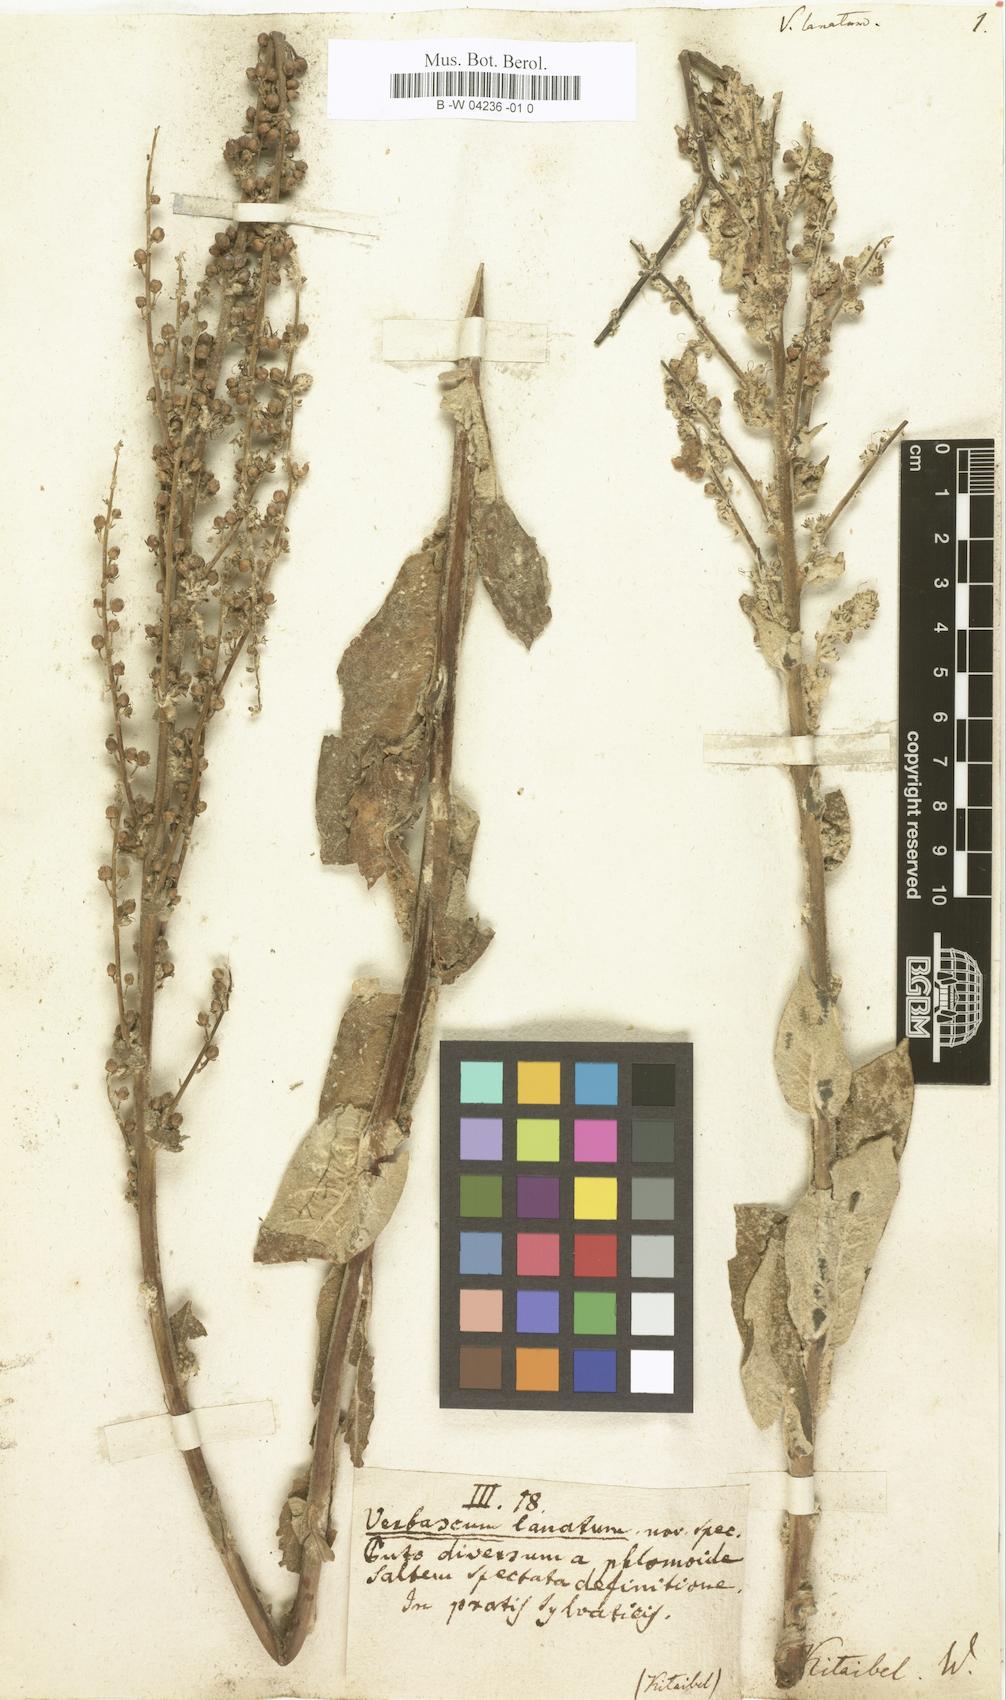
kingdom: Plantae
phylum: Tracheophyta
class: Magnoliopsida
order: Lamiales
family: Scrophulariaceae
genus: Verbascum
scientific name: Verbascum
